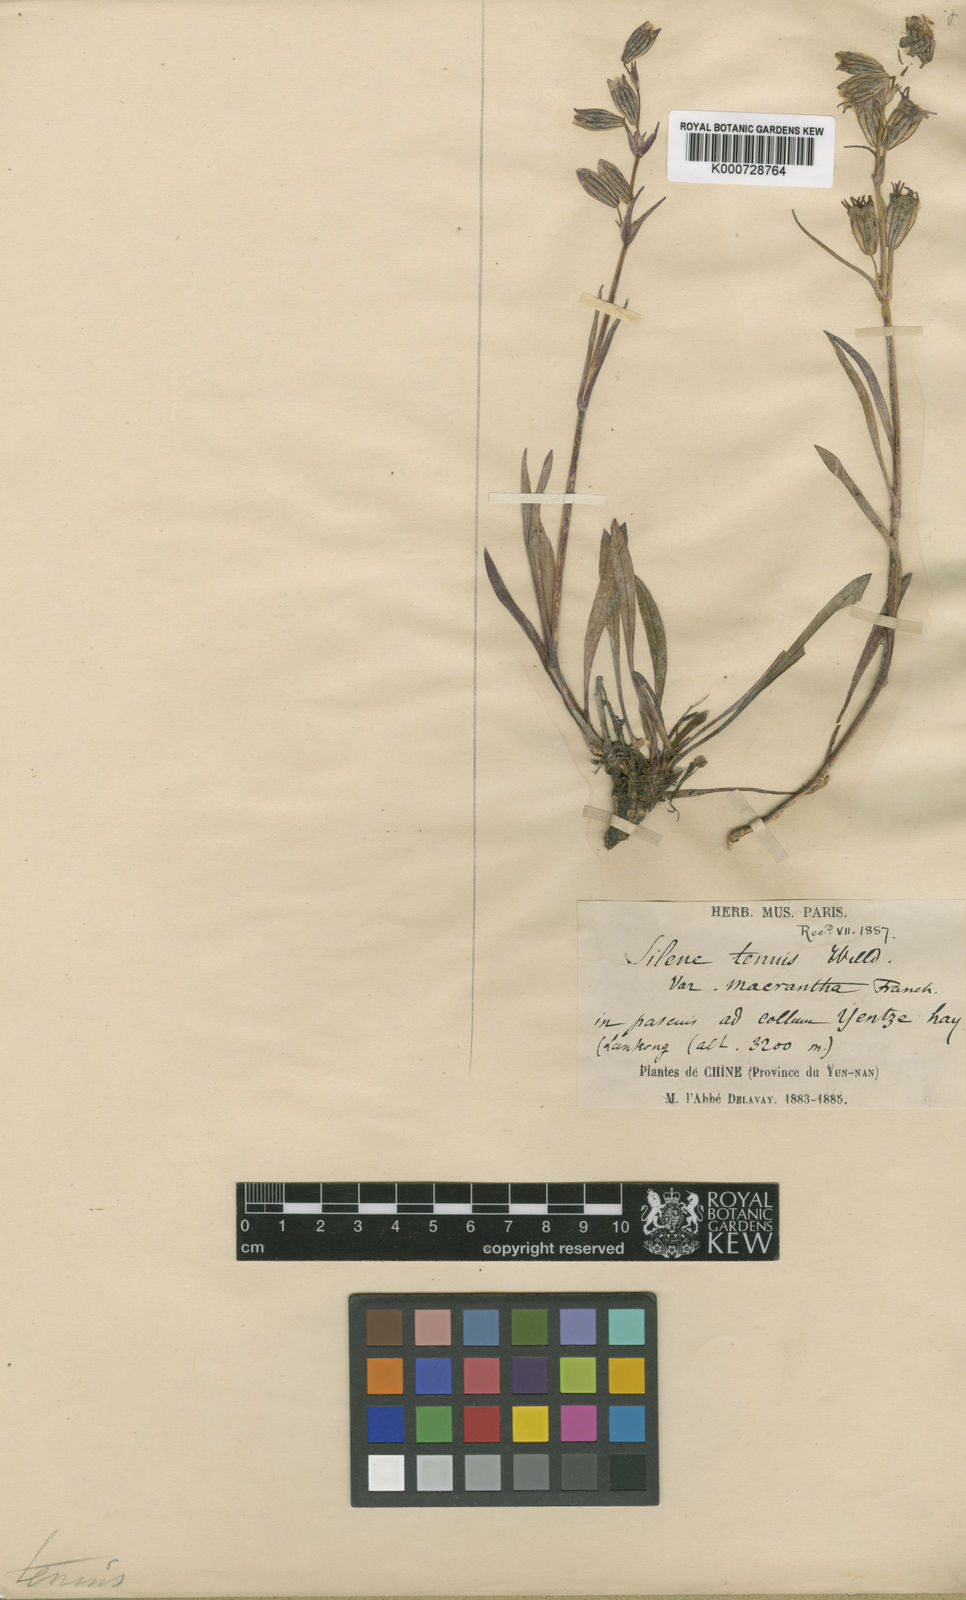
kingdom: Plantae
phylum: Tracheophyta
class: Magnoliopsida
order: Caryophyllales
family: Caryophyllaceae
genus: Silene
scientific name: Silene
